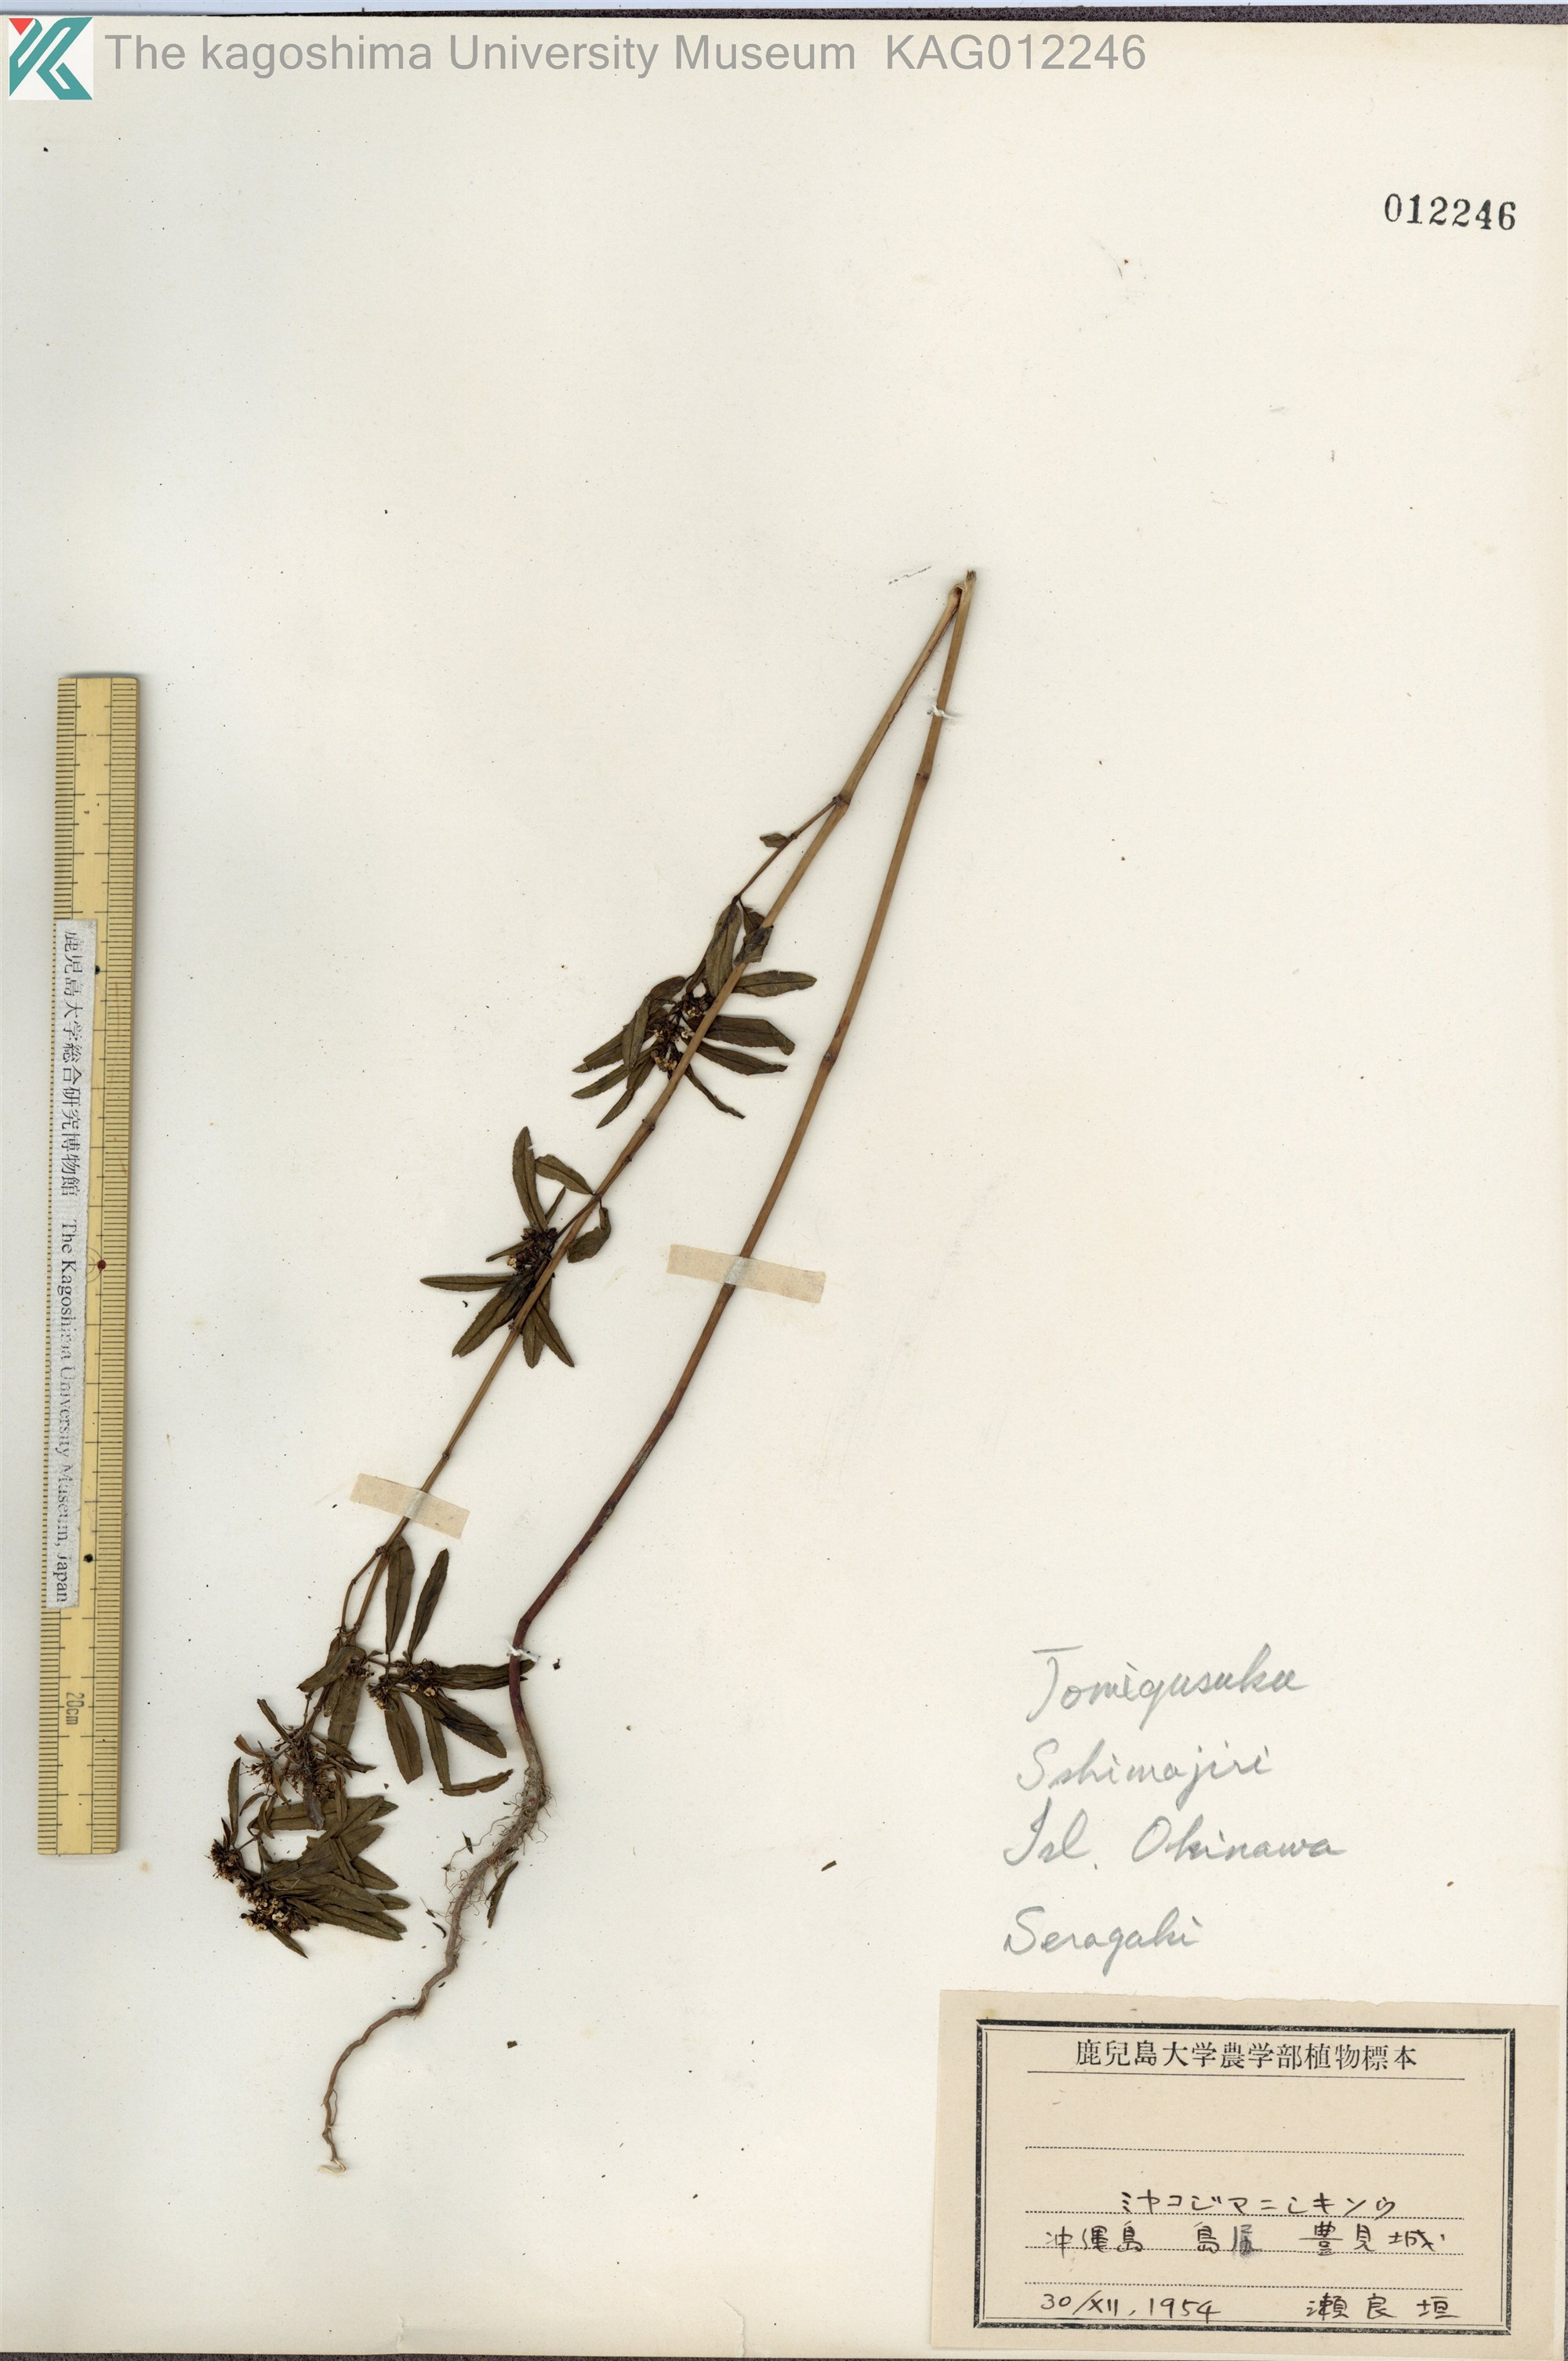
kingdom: Plantae
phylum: Tracheophyta
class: Magnoliopsida
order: Malpighiales
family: Euphorbiaceae
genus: Euphorbia
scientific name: Euphorbia bifida
